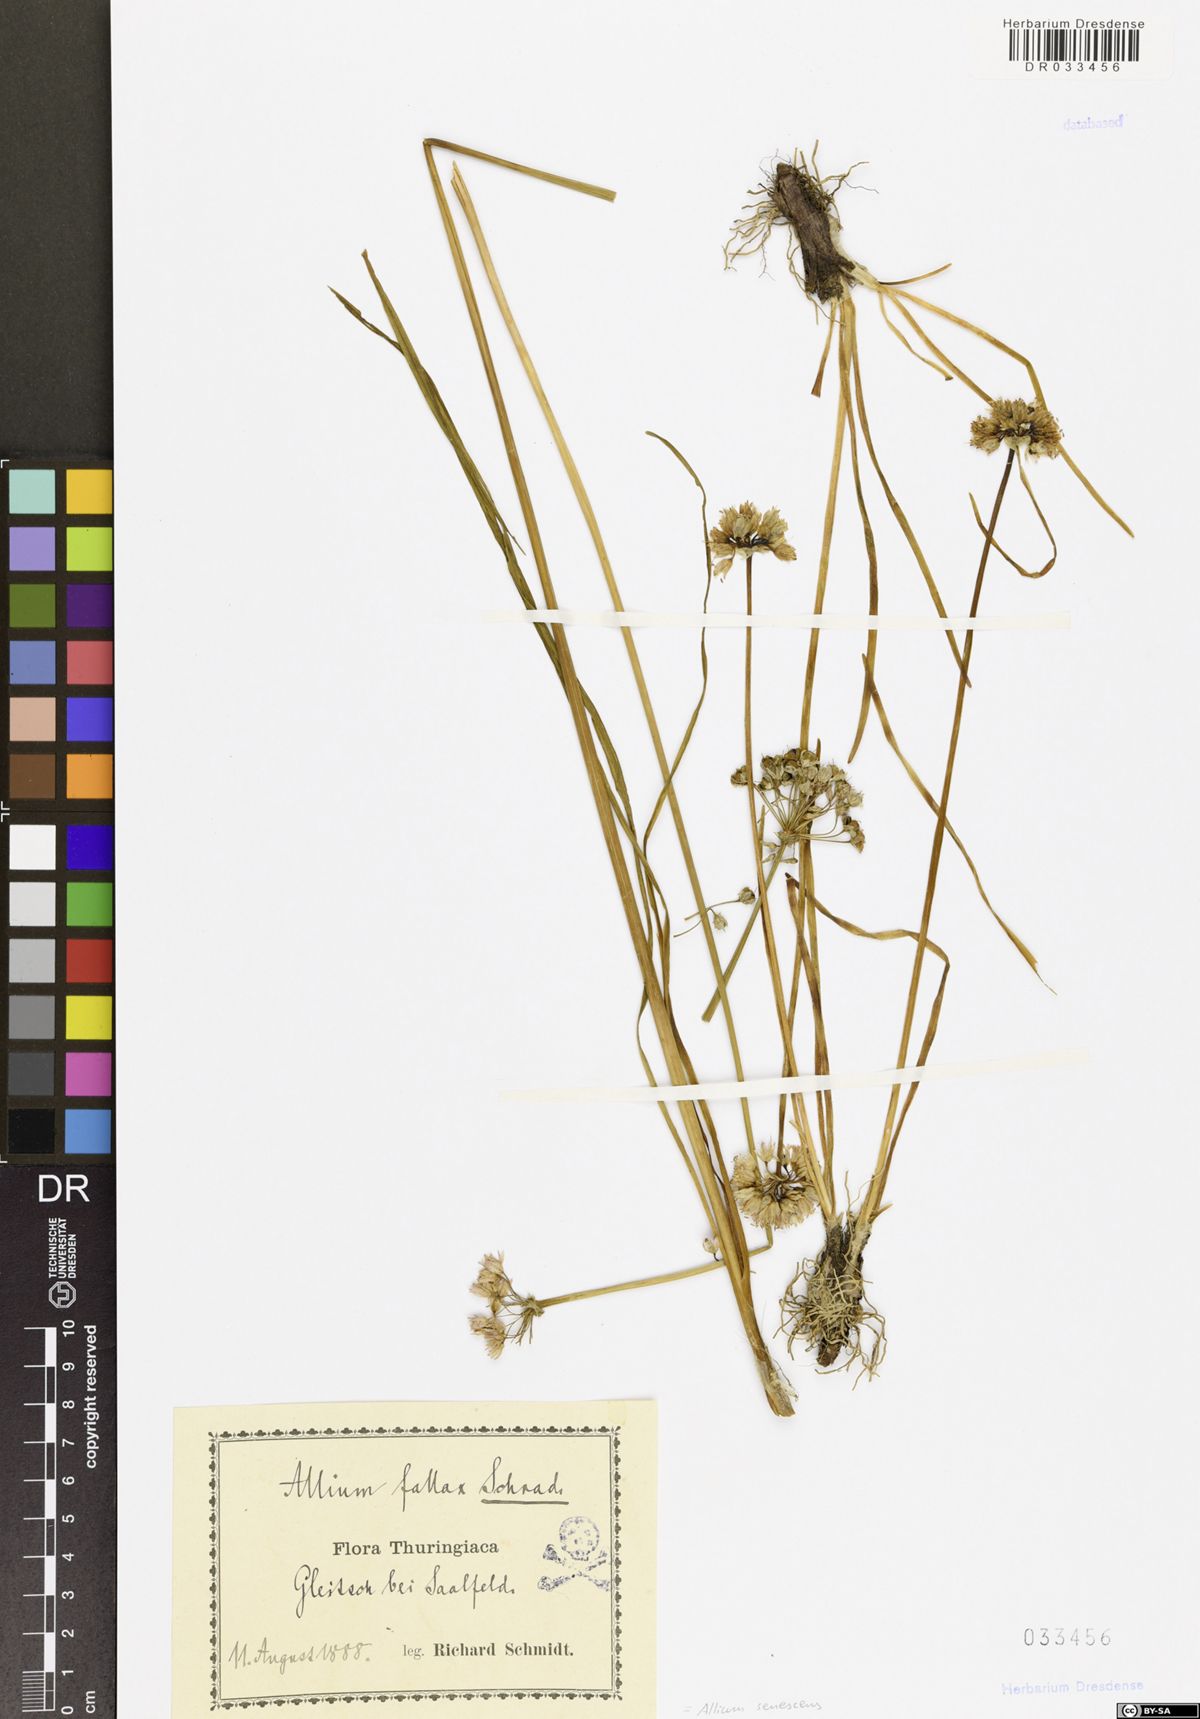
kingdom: Plantae
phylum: Tracheophyta
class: Liliopsida
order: Asparagales
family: Amaryllidaceae
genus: Allium
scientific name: Allium senescens
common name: German garlic
